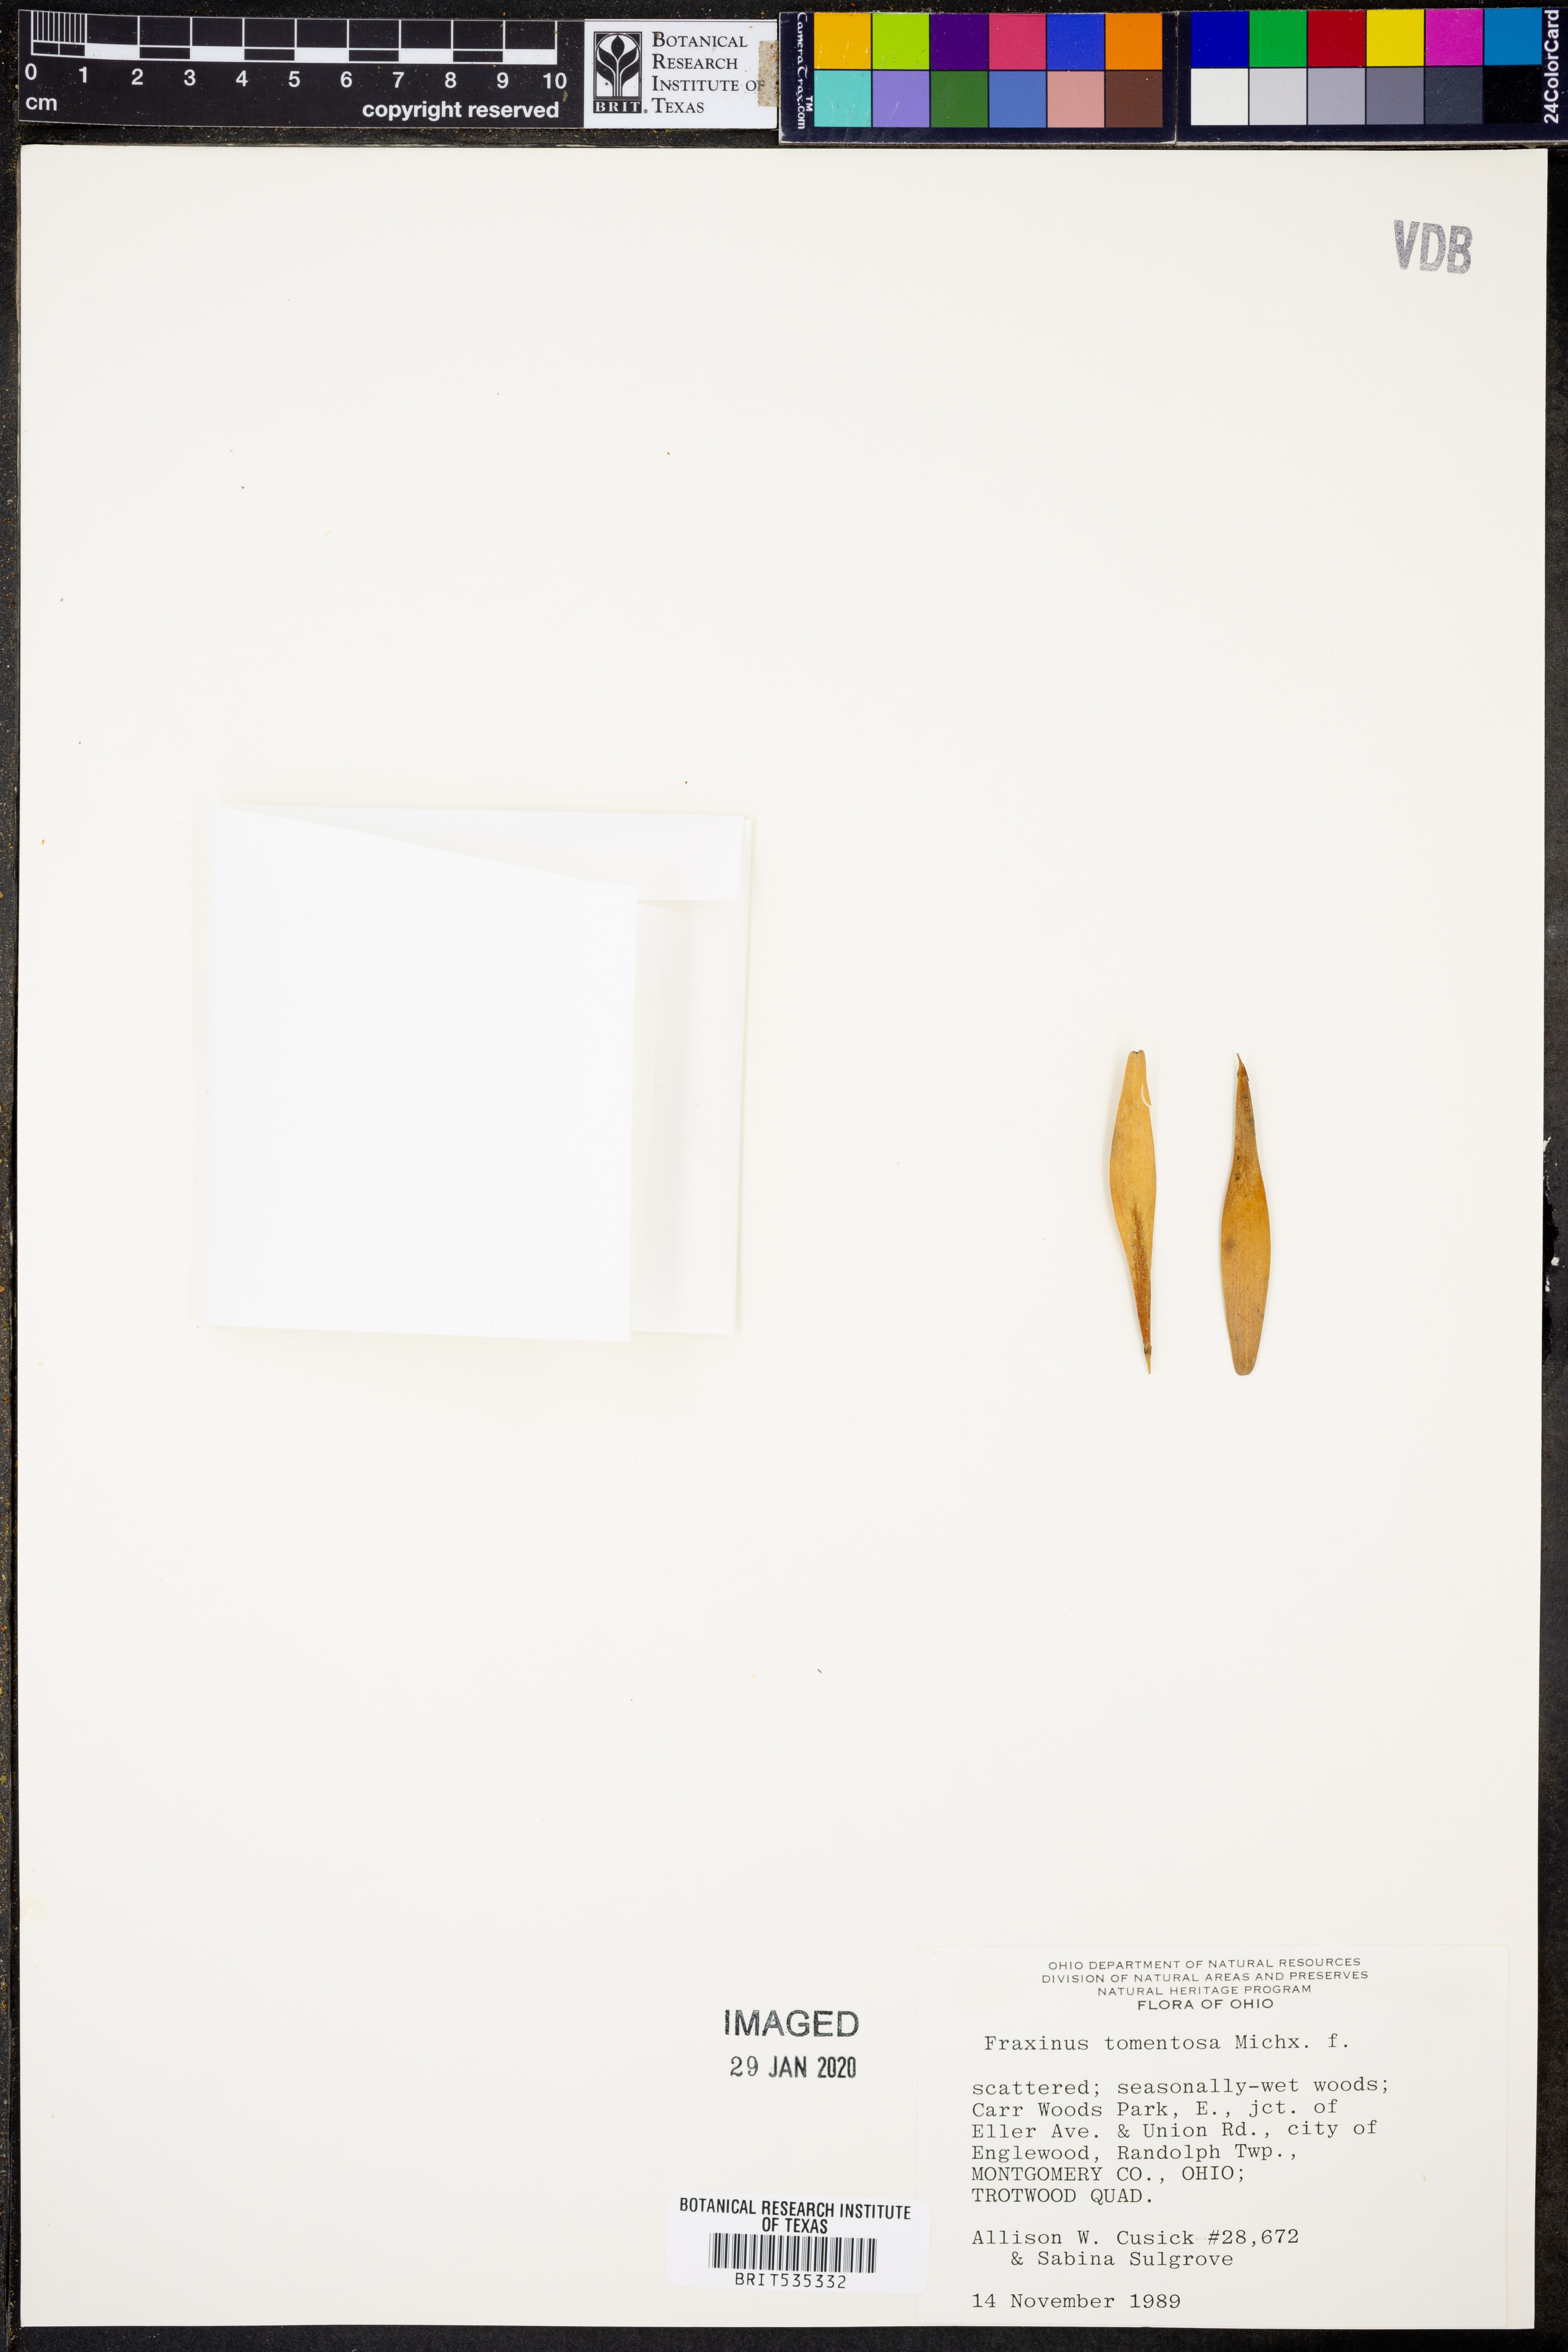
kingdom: Plantae
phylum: Tracheophyta
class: Magnoliopsida
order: Lamiales
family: Oleaceae
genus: Fraxinus
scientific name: Fraxinus profunda
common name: Pumpkin ash
